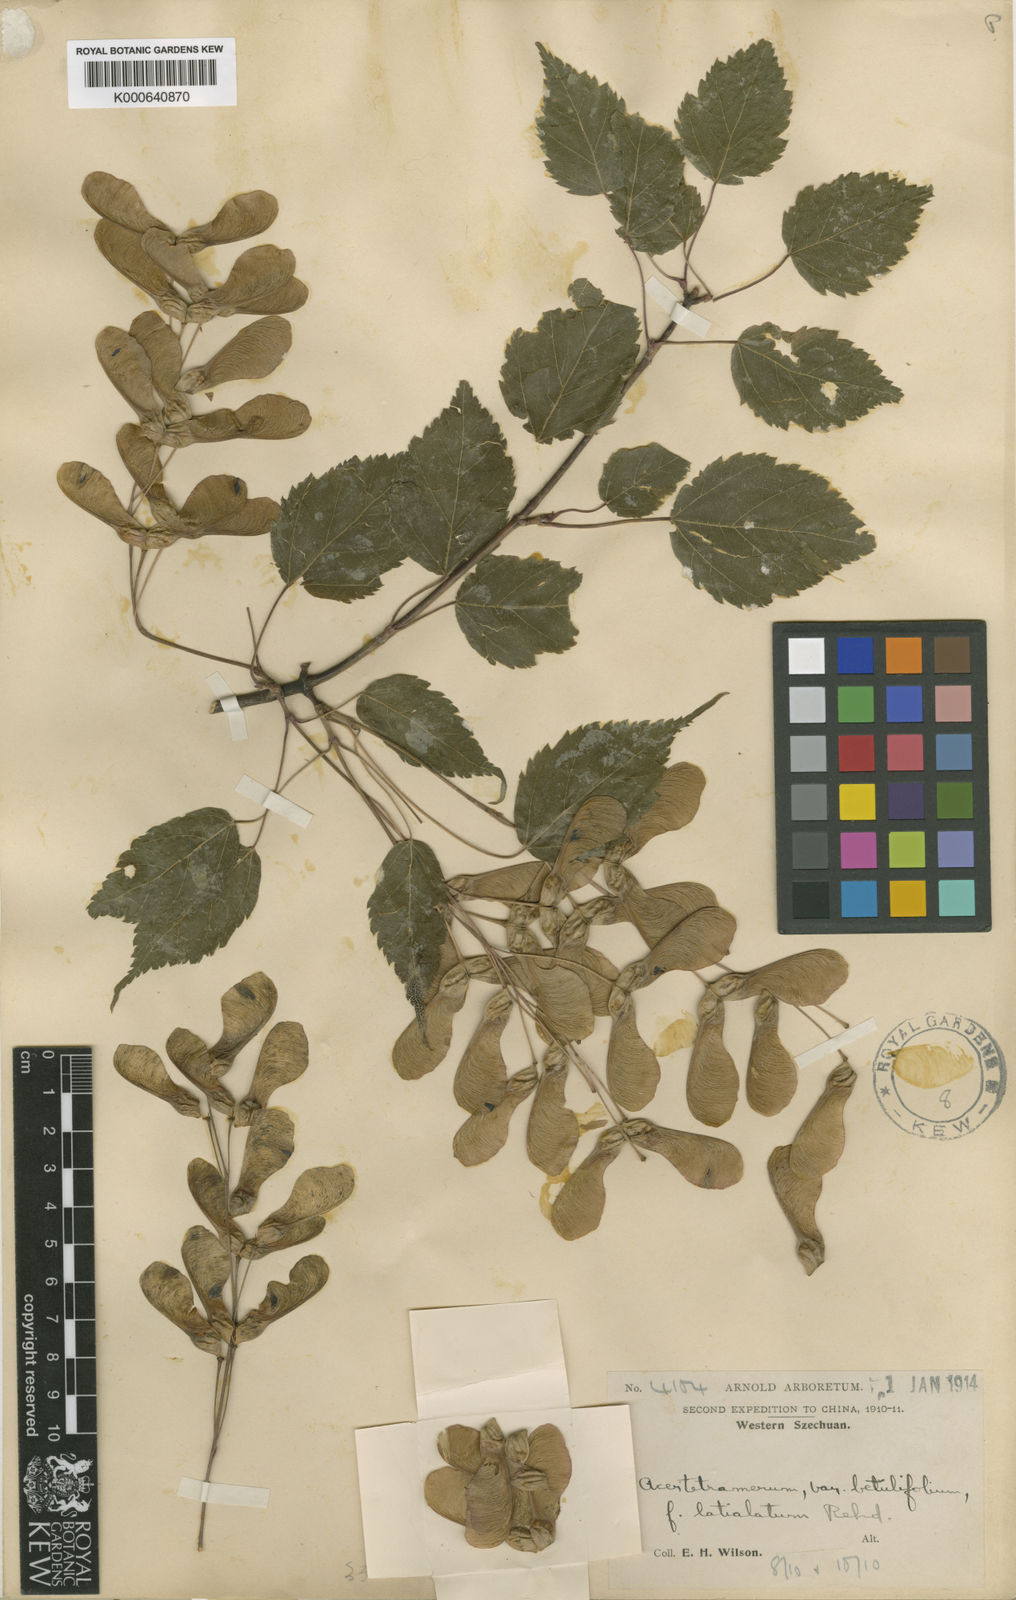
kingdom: Plantae
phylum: Tracheophyta
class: Magnoliopsida
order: Sapindales
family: Sapindaceae
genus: Acer
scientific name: Acer stachyophyllum
